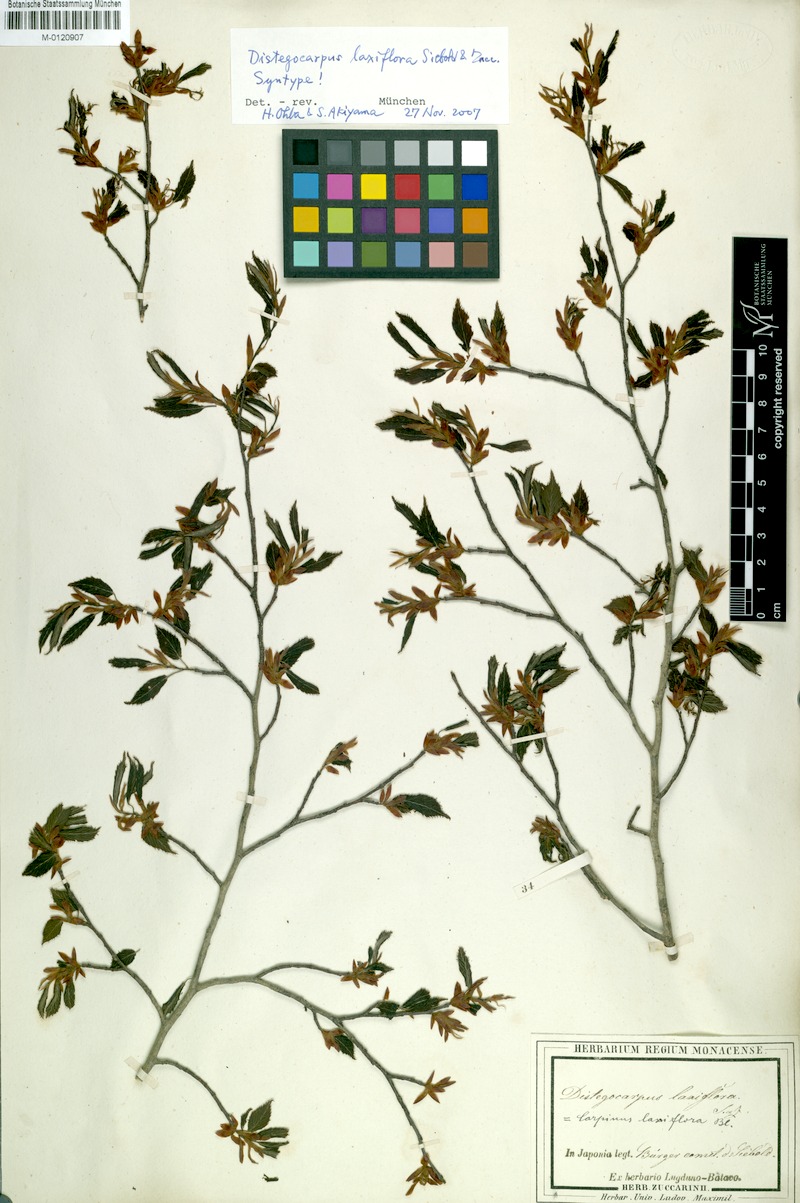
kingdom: Plantae
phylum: Tracheophyta
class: Magnoliopsida
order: Fagales
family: Betulaceae
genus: Carpinus
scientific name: Carpinus laxiflora
